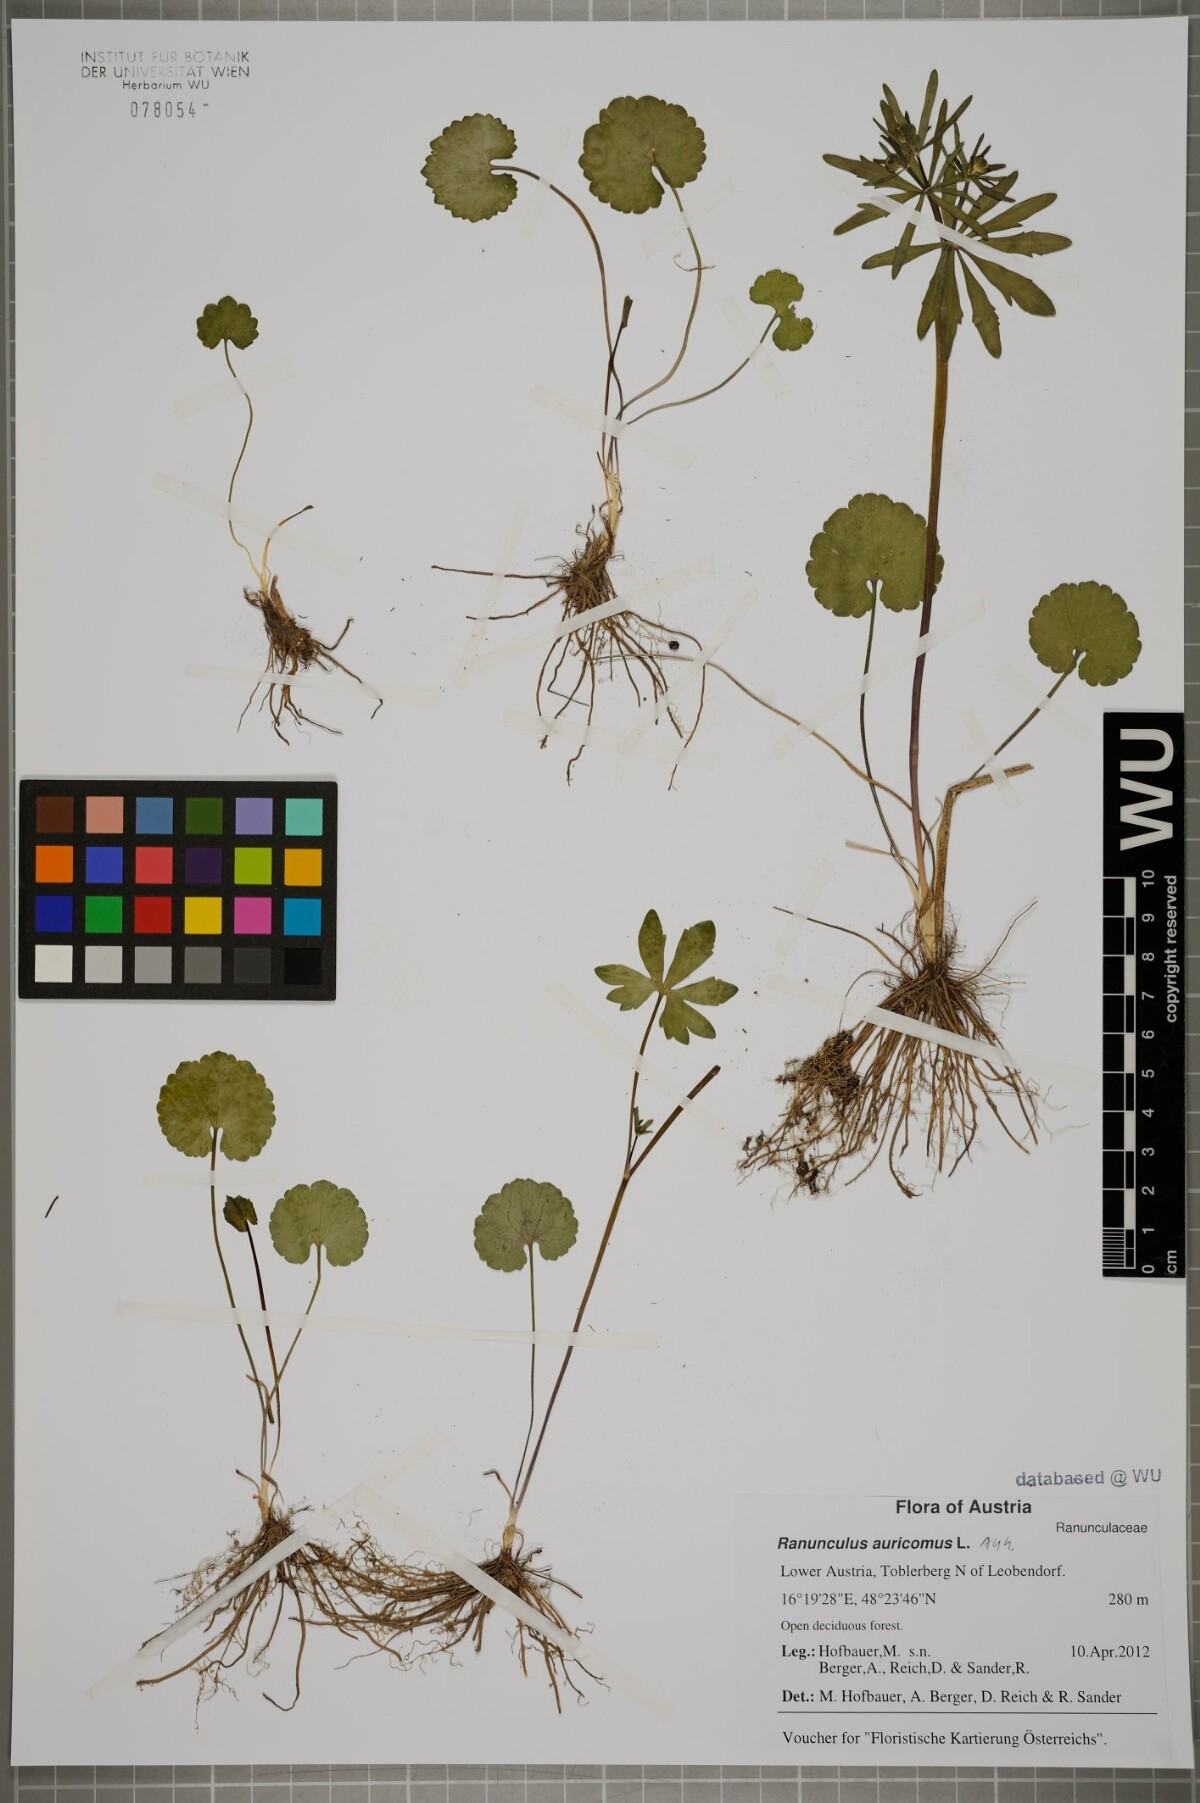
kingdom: Plantae
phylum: Tracheophyta
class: Magnoliopsida
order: Ranunculales
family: Ranunculaceae
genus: Ranunculus
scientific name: Ranunculus auricomus
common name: Goldilocks buttercup
